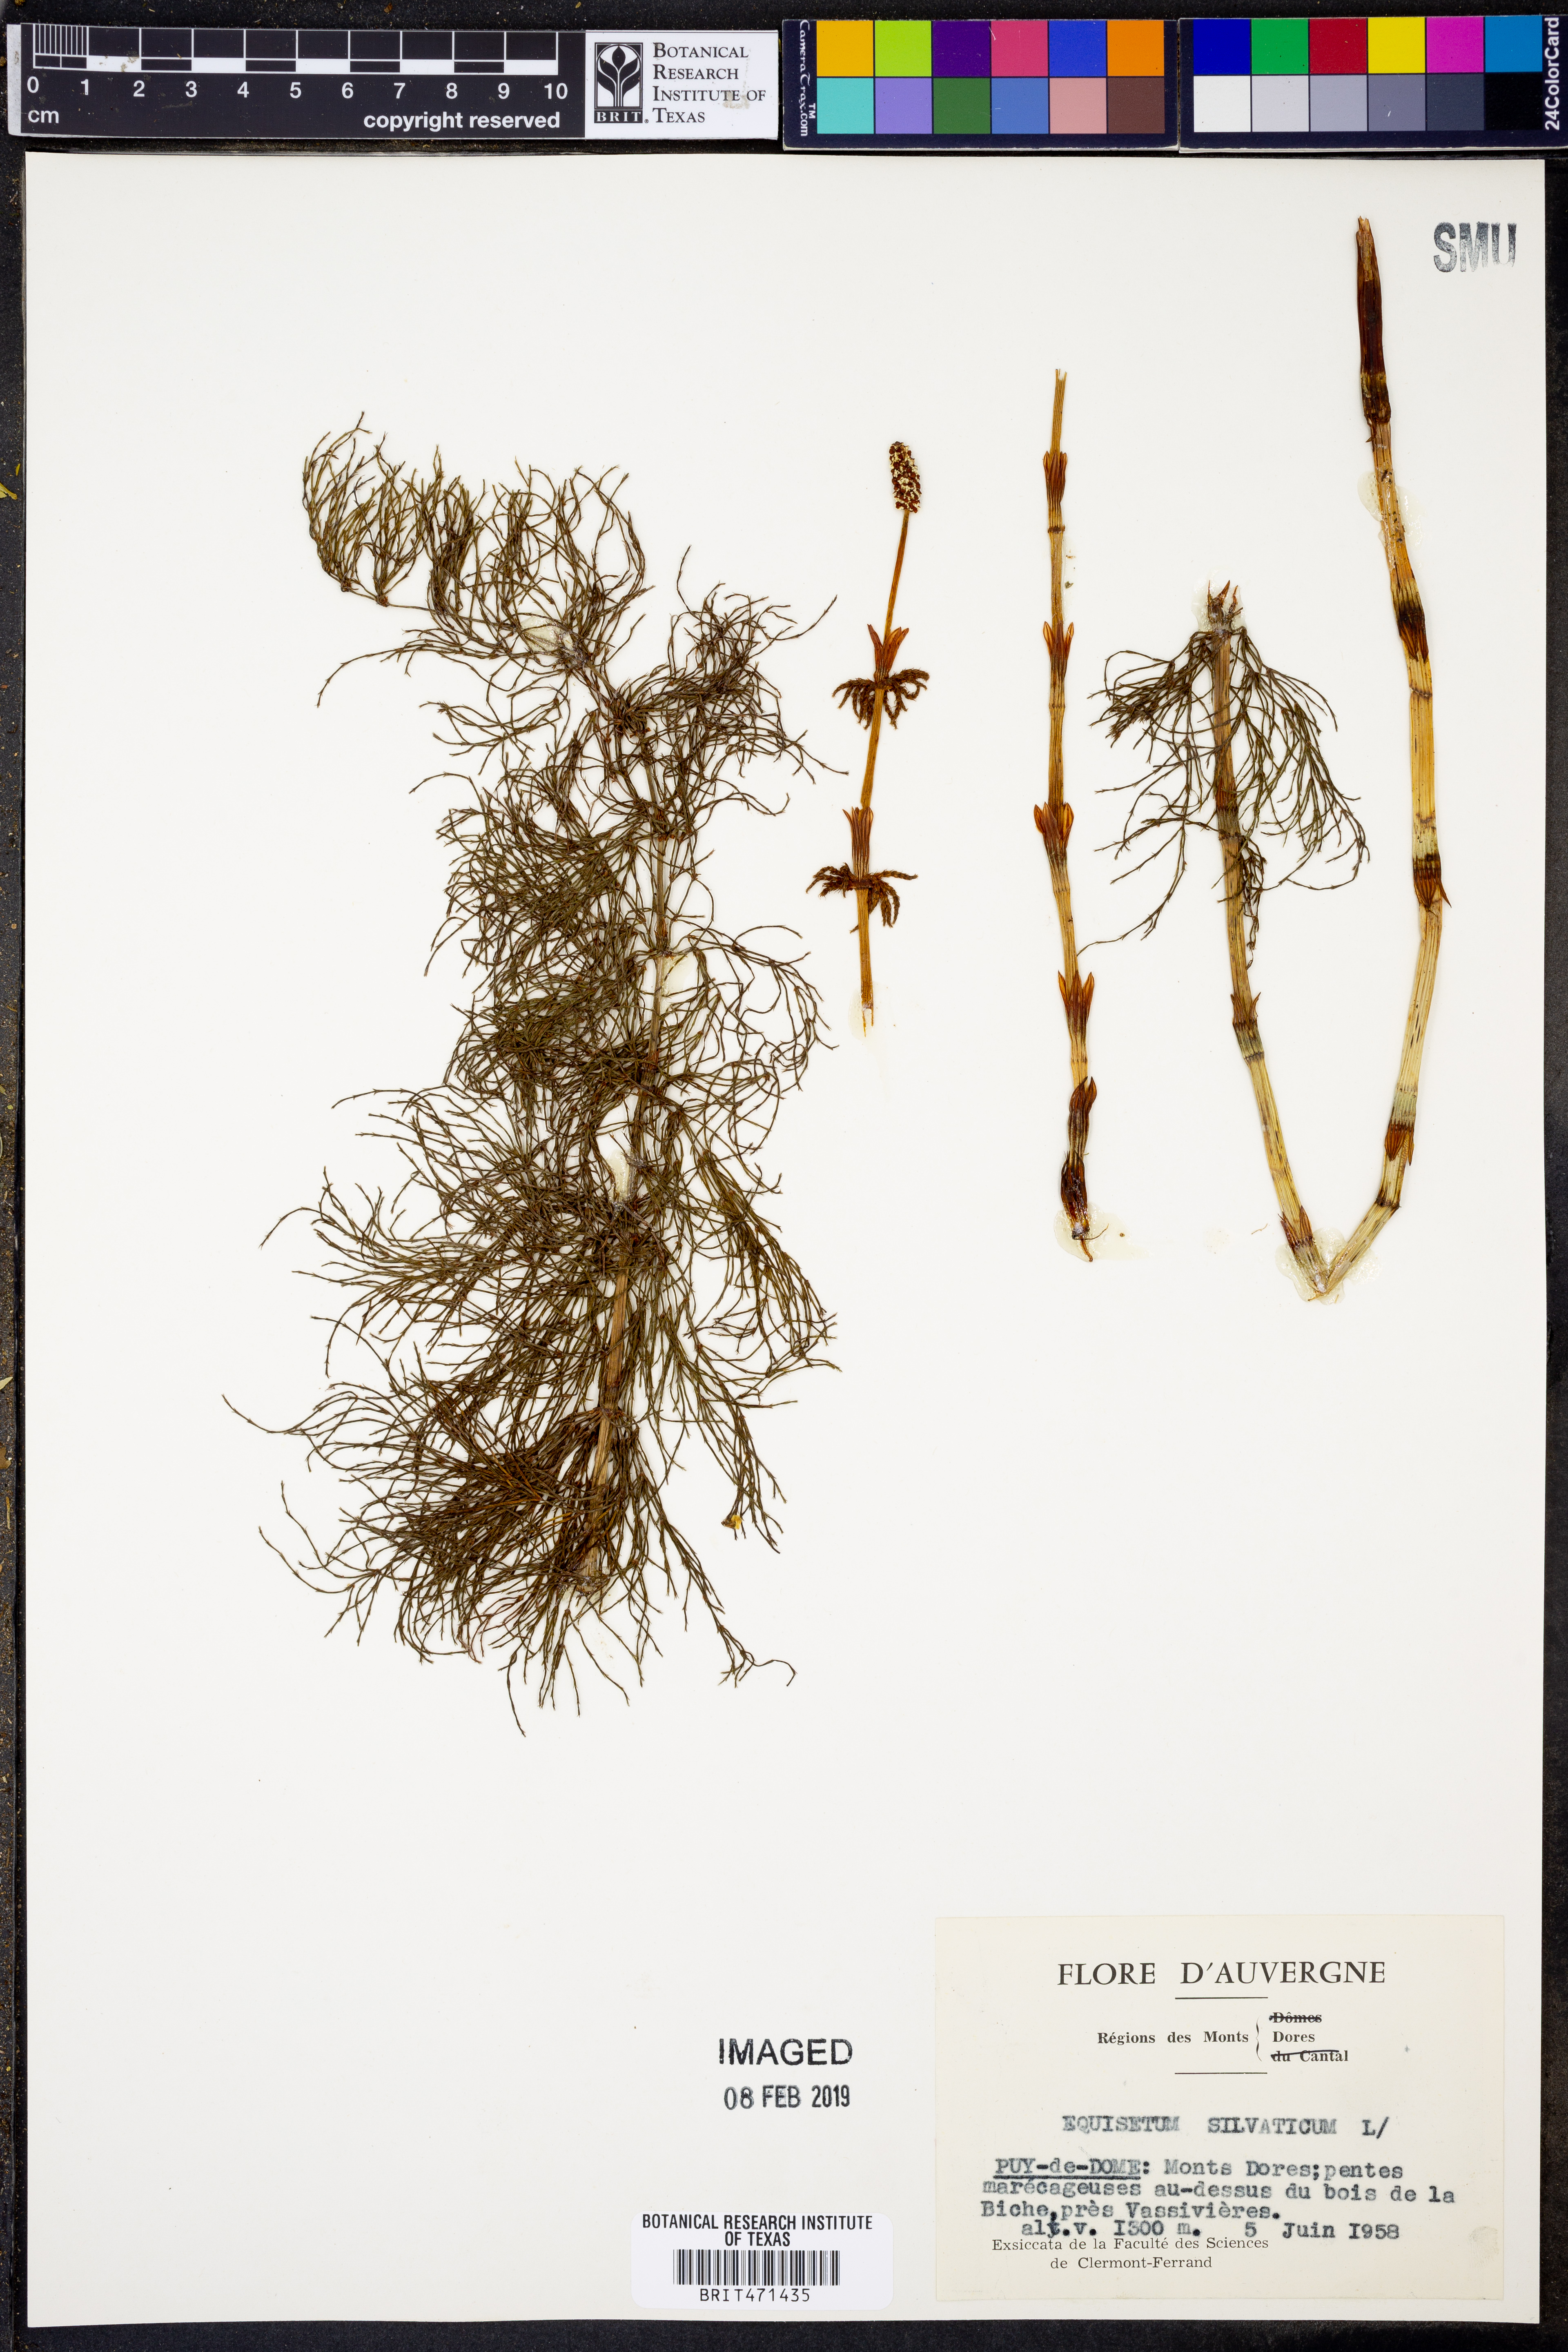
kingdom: Plantae
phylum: Tracheophyta
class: Polypodiopsida
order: Equisetales
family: Equisetaceae
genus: Equisetum
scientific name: Equisetum sylvaticum
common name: Wood horsetail
